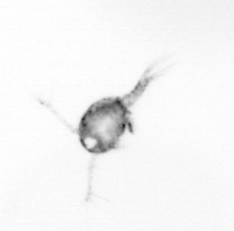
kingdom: Animalia
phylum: Arthropoda
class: Copepoda
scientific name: Copepoda
